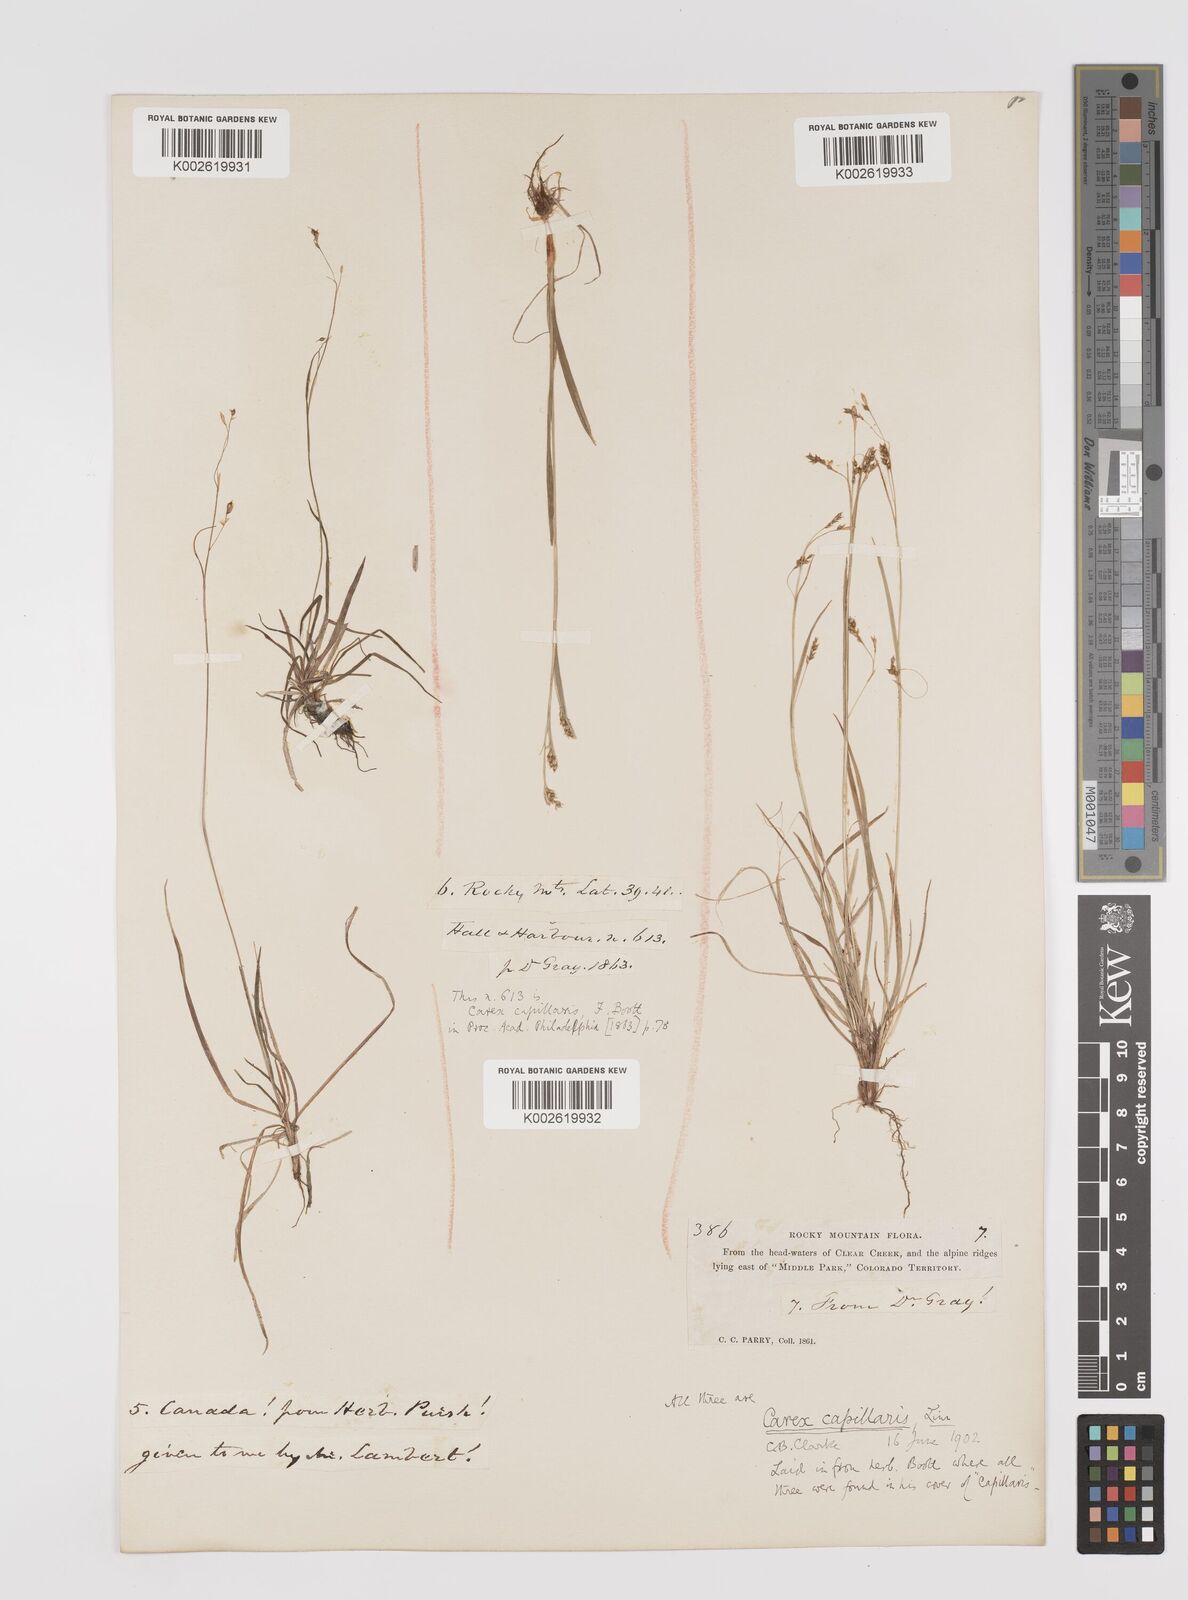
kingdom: Plantae
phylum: Tracheophyta
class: Liliopsida
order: Poales
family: Cyperaceae
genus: Carex
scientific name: Carex capillaris
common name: Hair sedge
